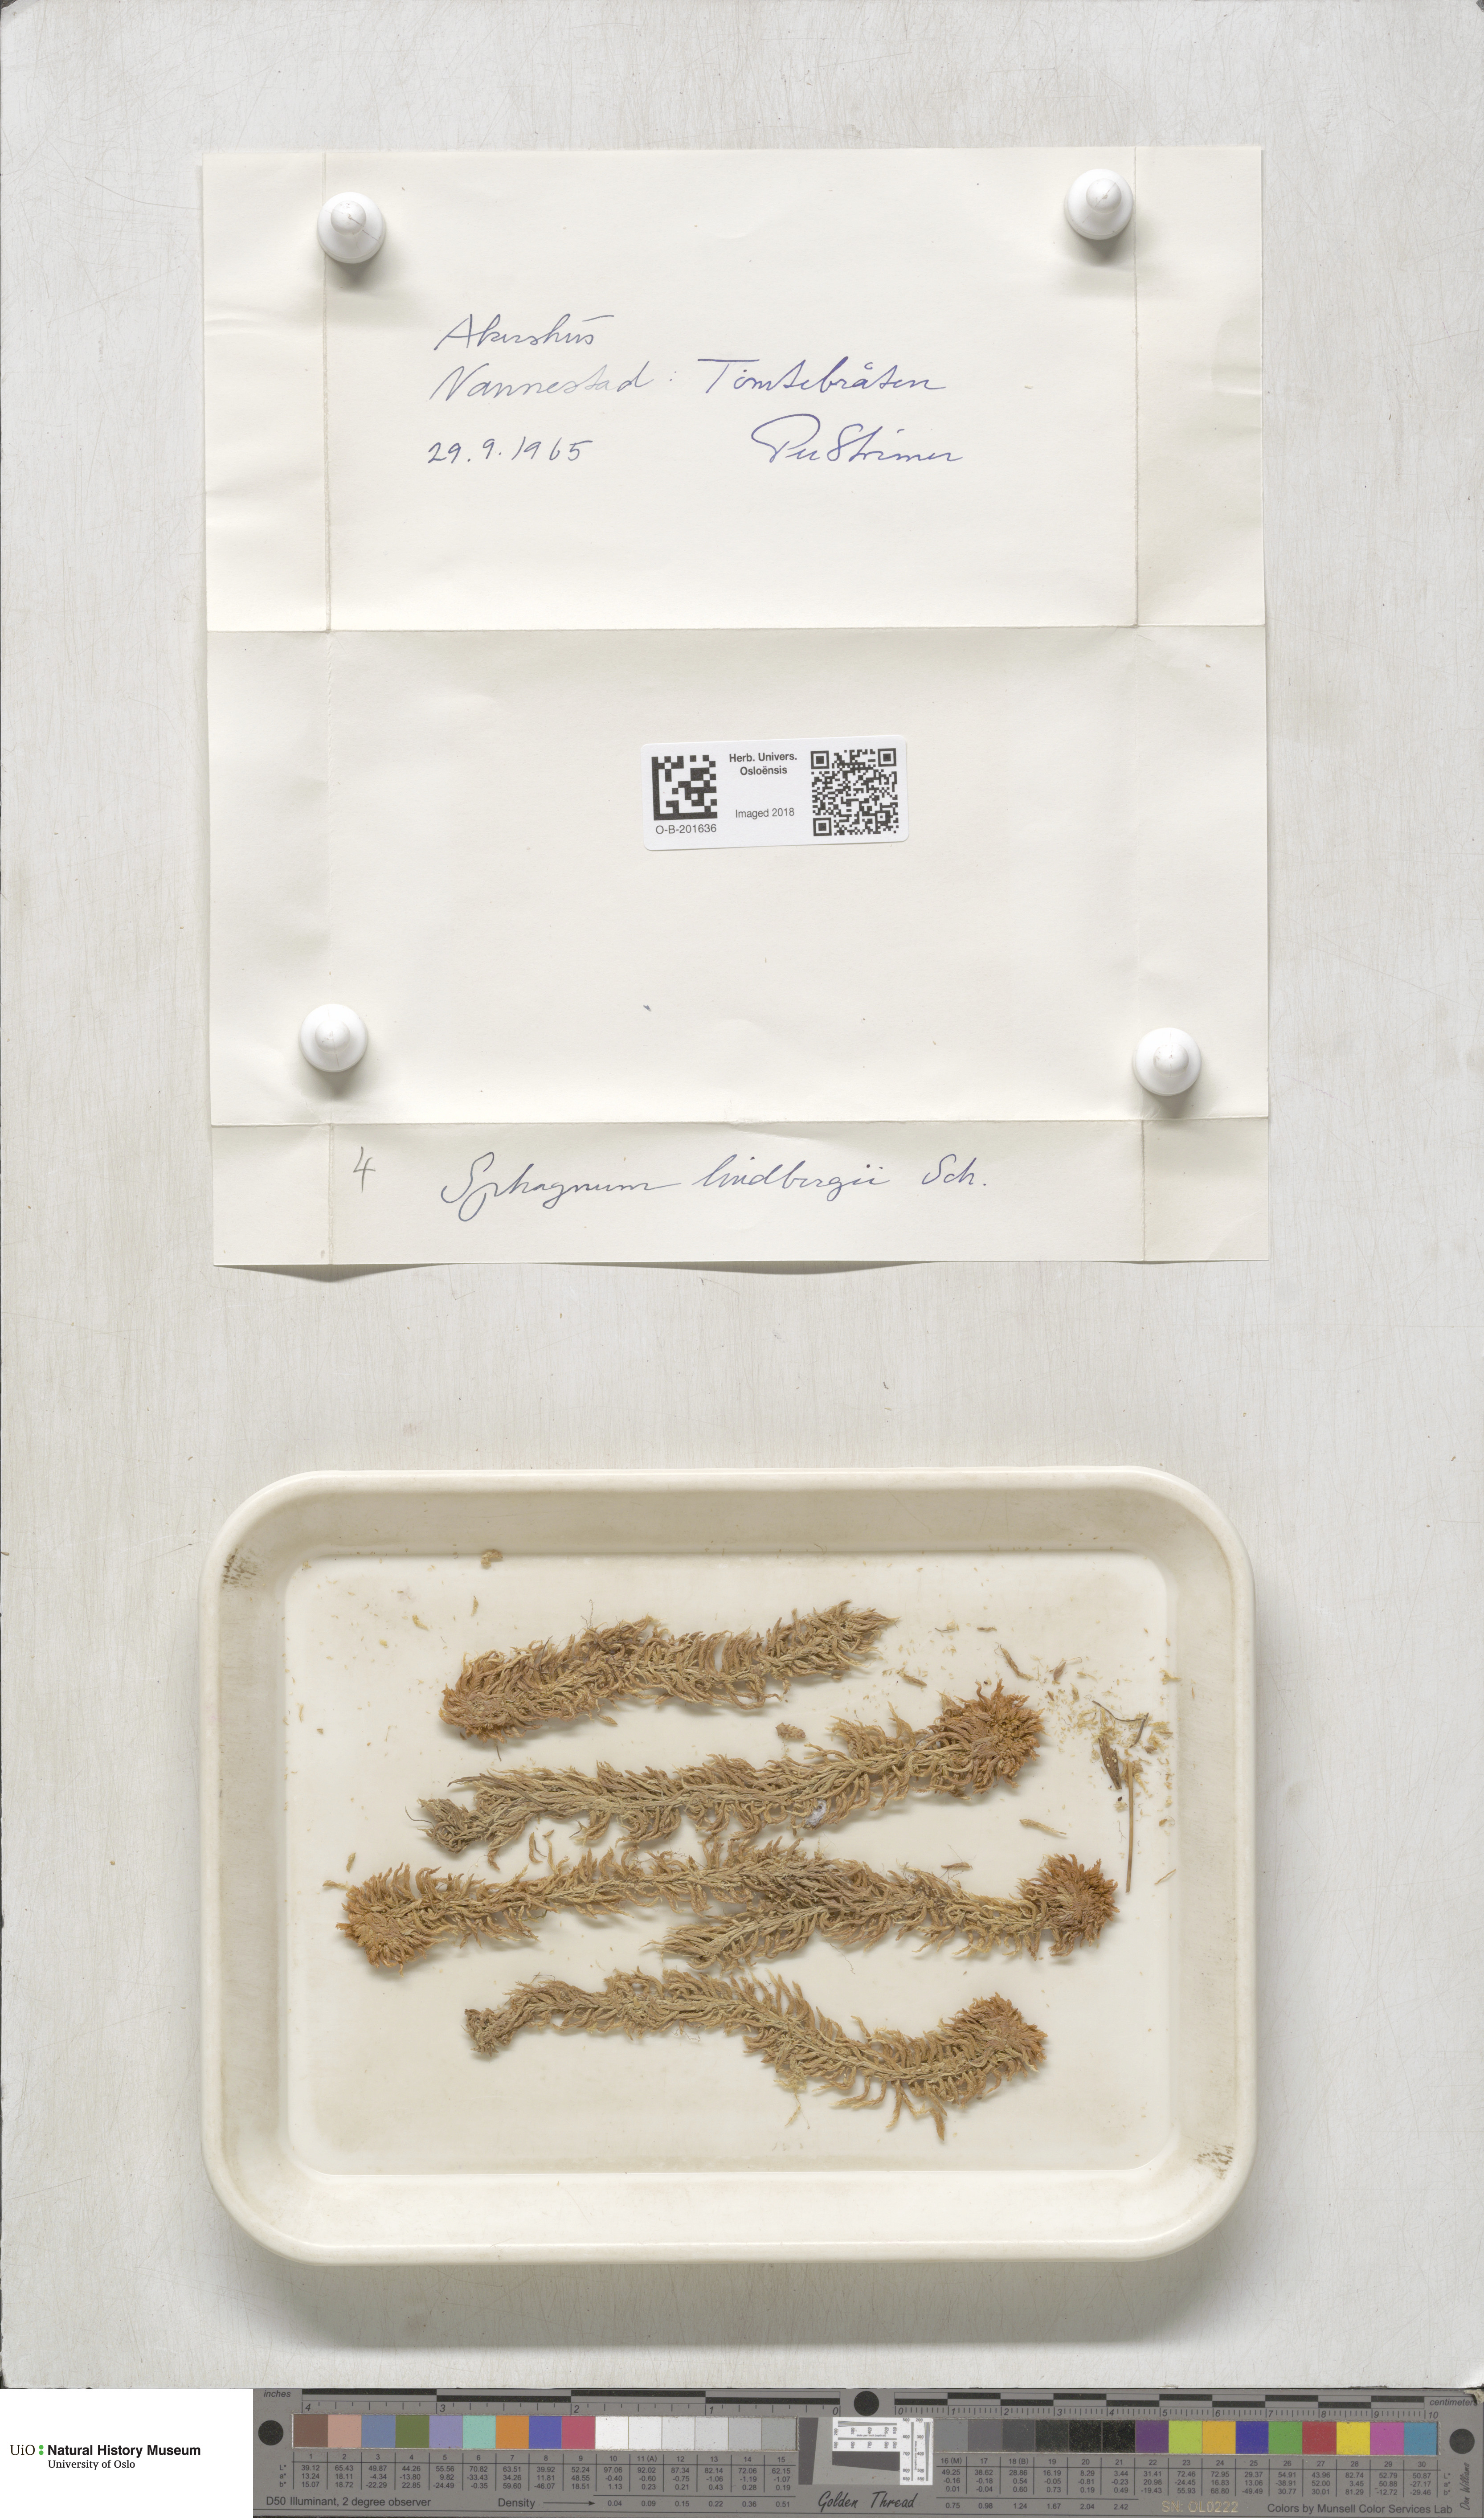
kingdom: Plantae
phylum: Bryophyta
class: Sphagnopsida
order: Sphagnales
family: Sphagnaceae
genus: Sphagnum
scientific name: Sphagnum lindbergii
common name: Lindberg's peat moss
